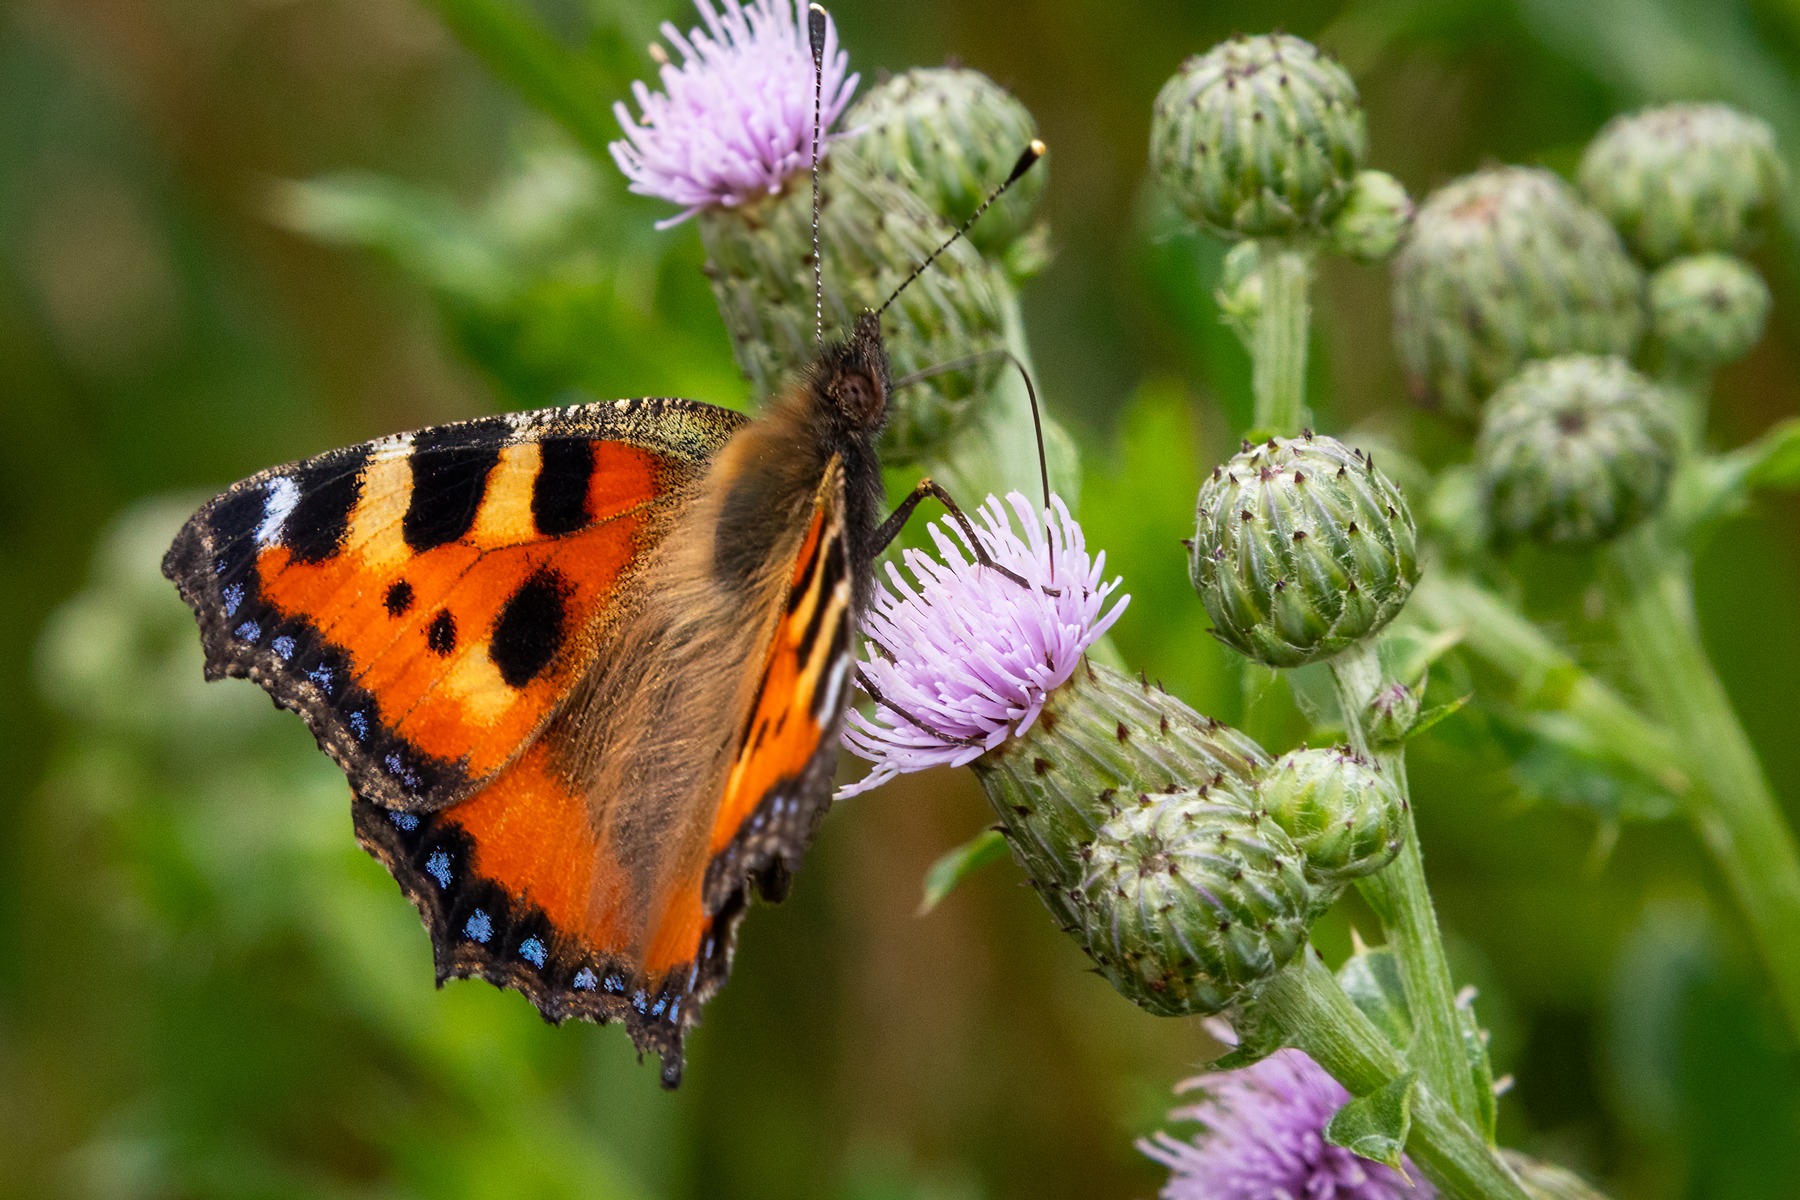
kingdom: Animalia
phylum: Arthropoda
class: Insecta
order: Lepidoptera
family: Nymphalidae
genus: Aglais
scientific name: Aglais urticae
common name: Nældens takvinge
